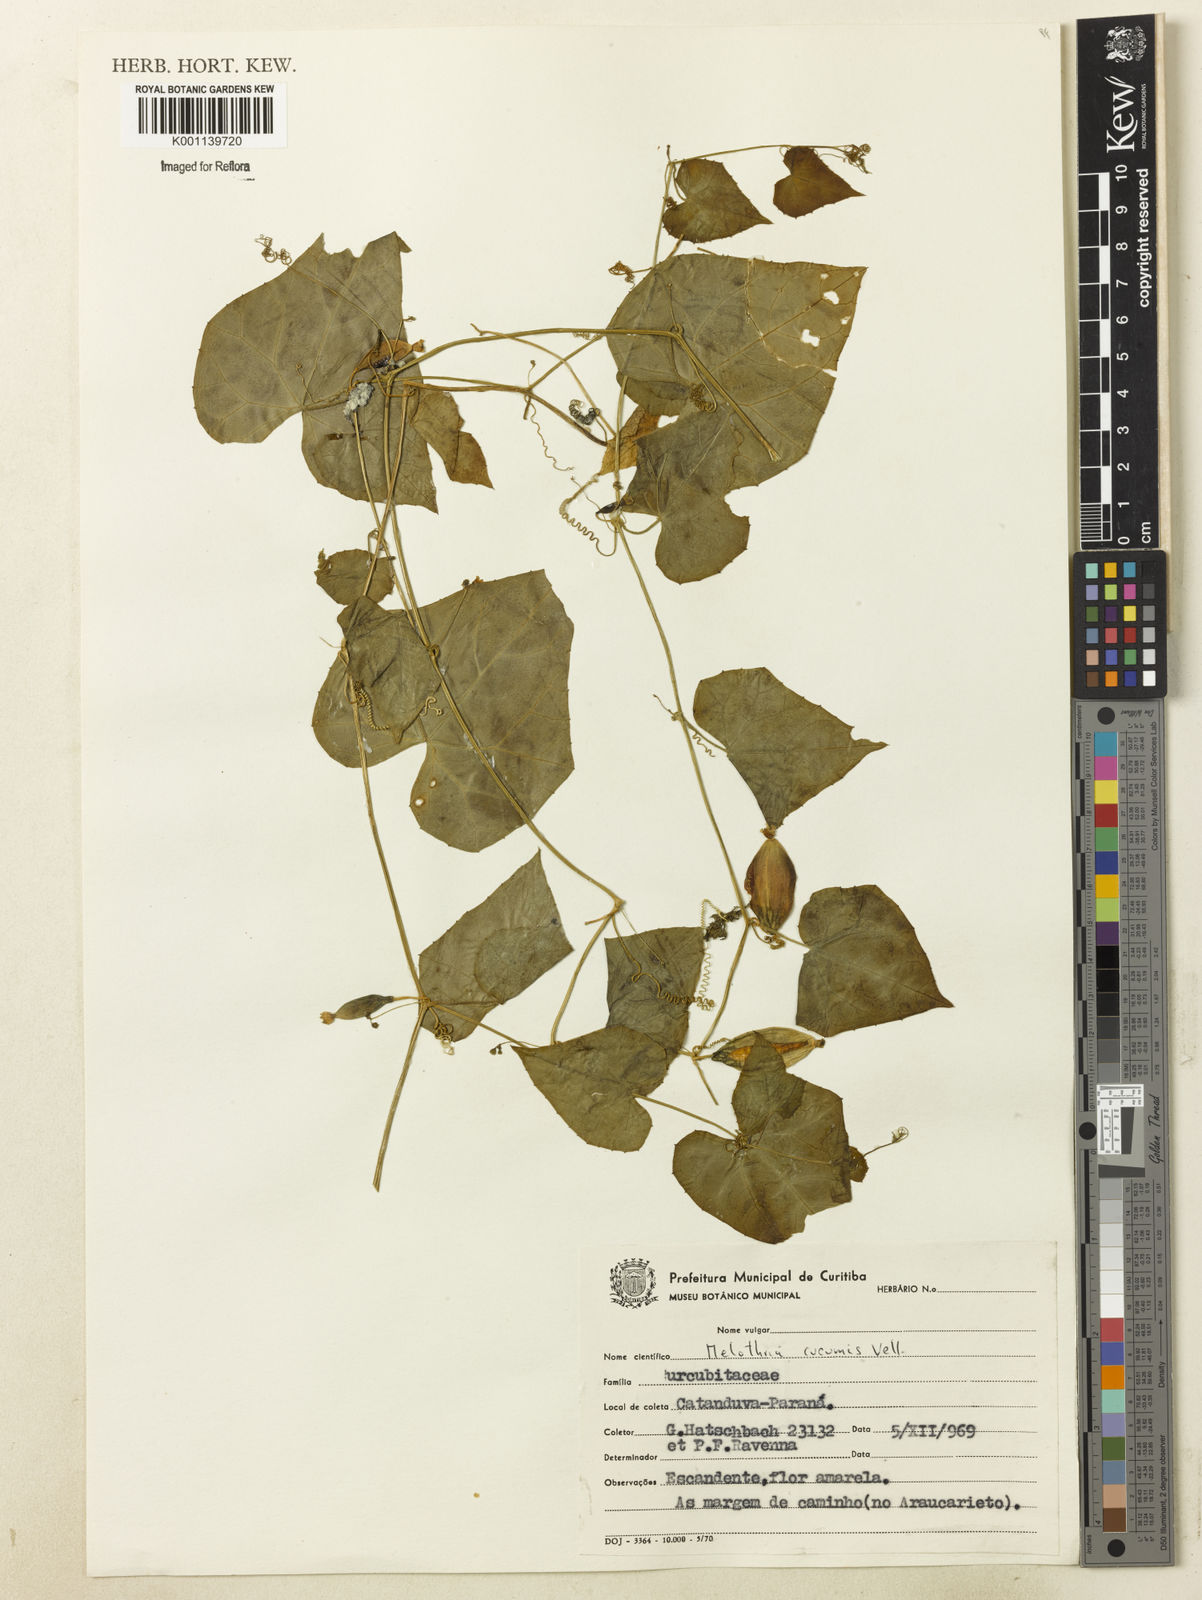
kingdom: Plantae
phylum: Tracheophyta
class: Magnoliopsida
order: Cucurbitales
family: Cucurbitaceae
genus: Melothria
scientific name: Melothria cucumis
